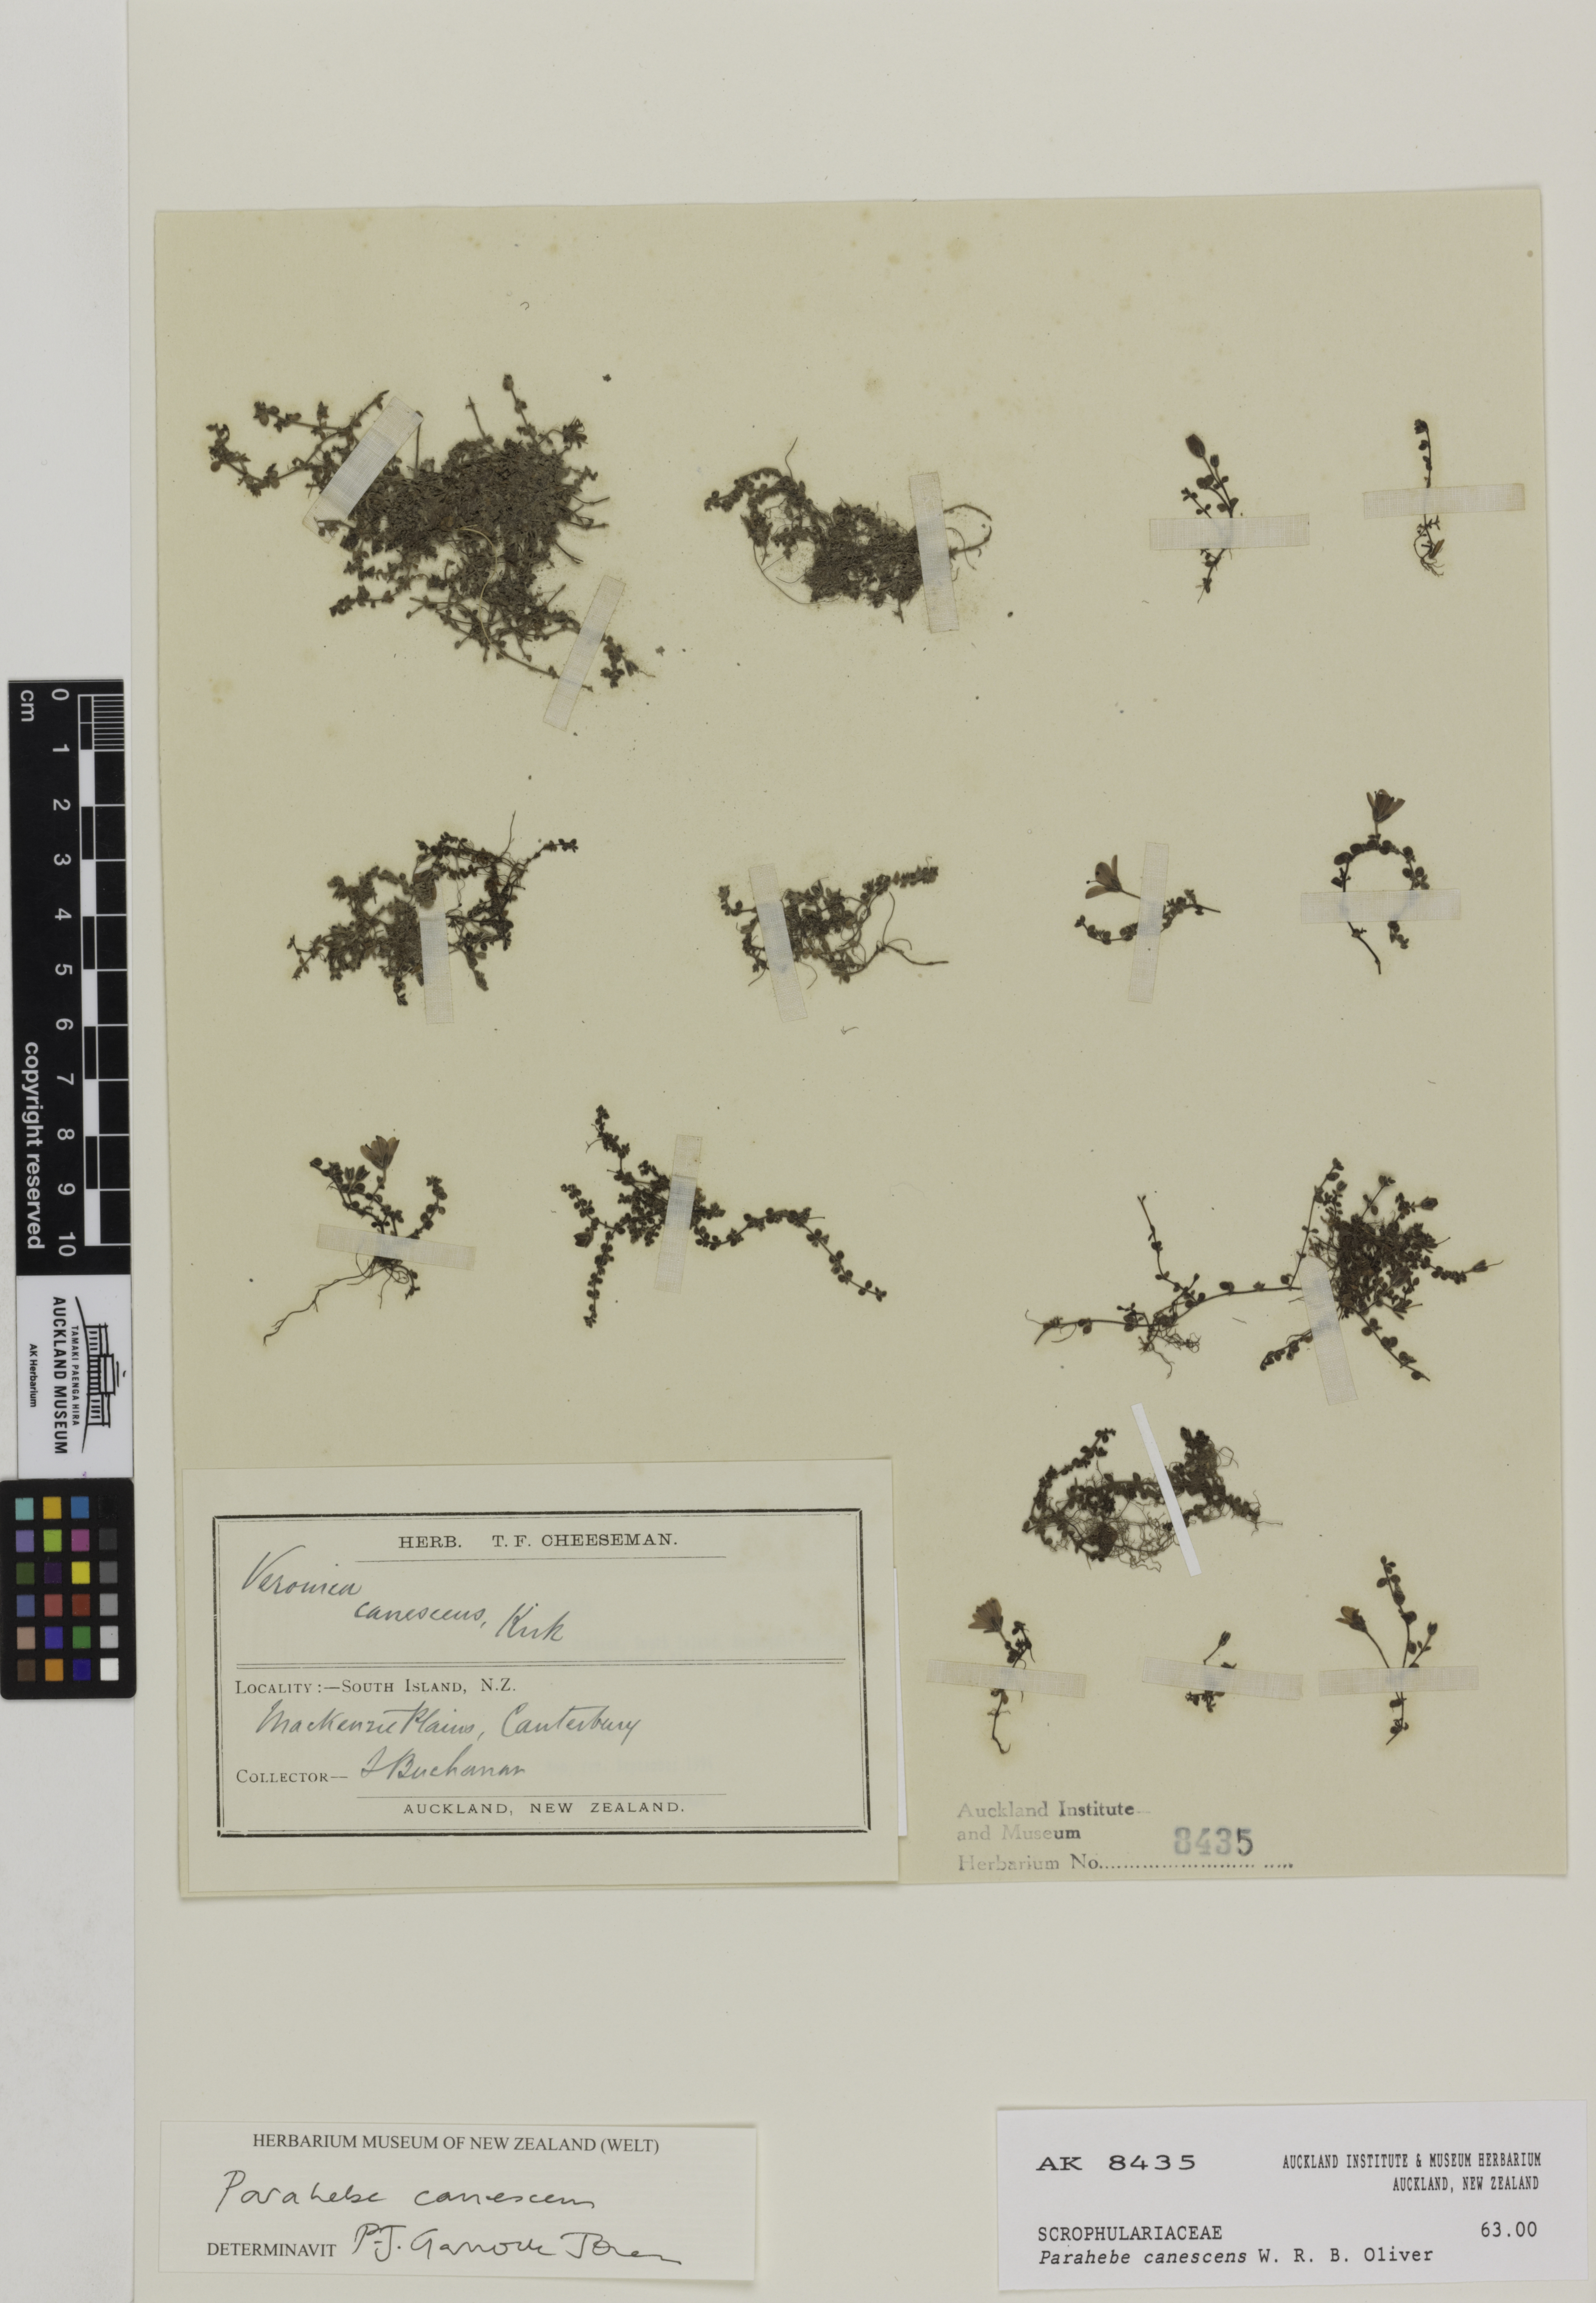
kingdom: Plantae
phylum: Tracheophyta
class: Magnoliopsida
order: Lamiales
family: Plantaginaceae
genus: Veronica
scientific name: Veronica lilliputiana
